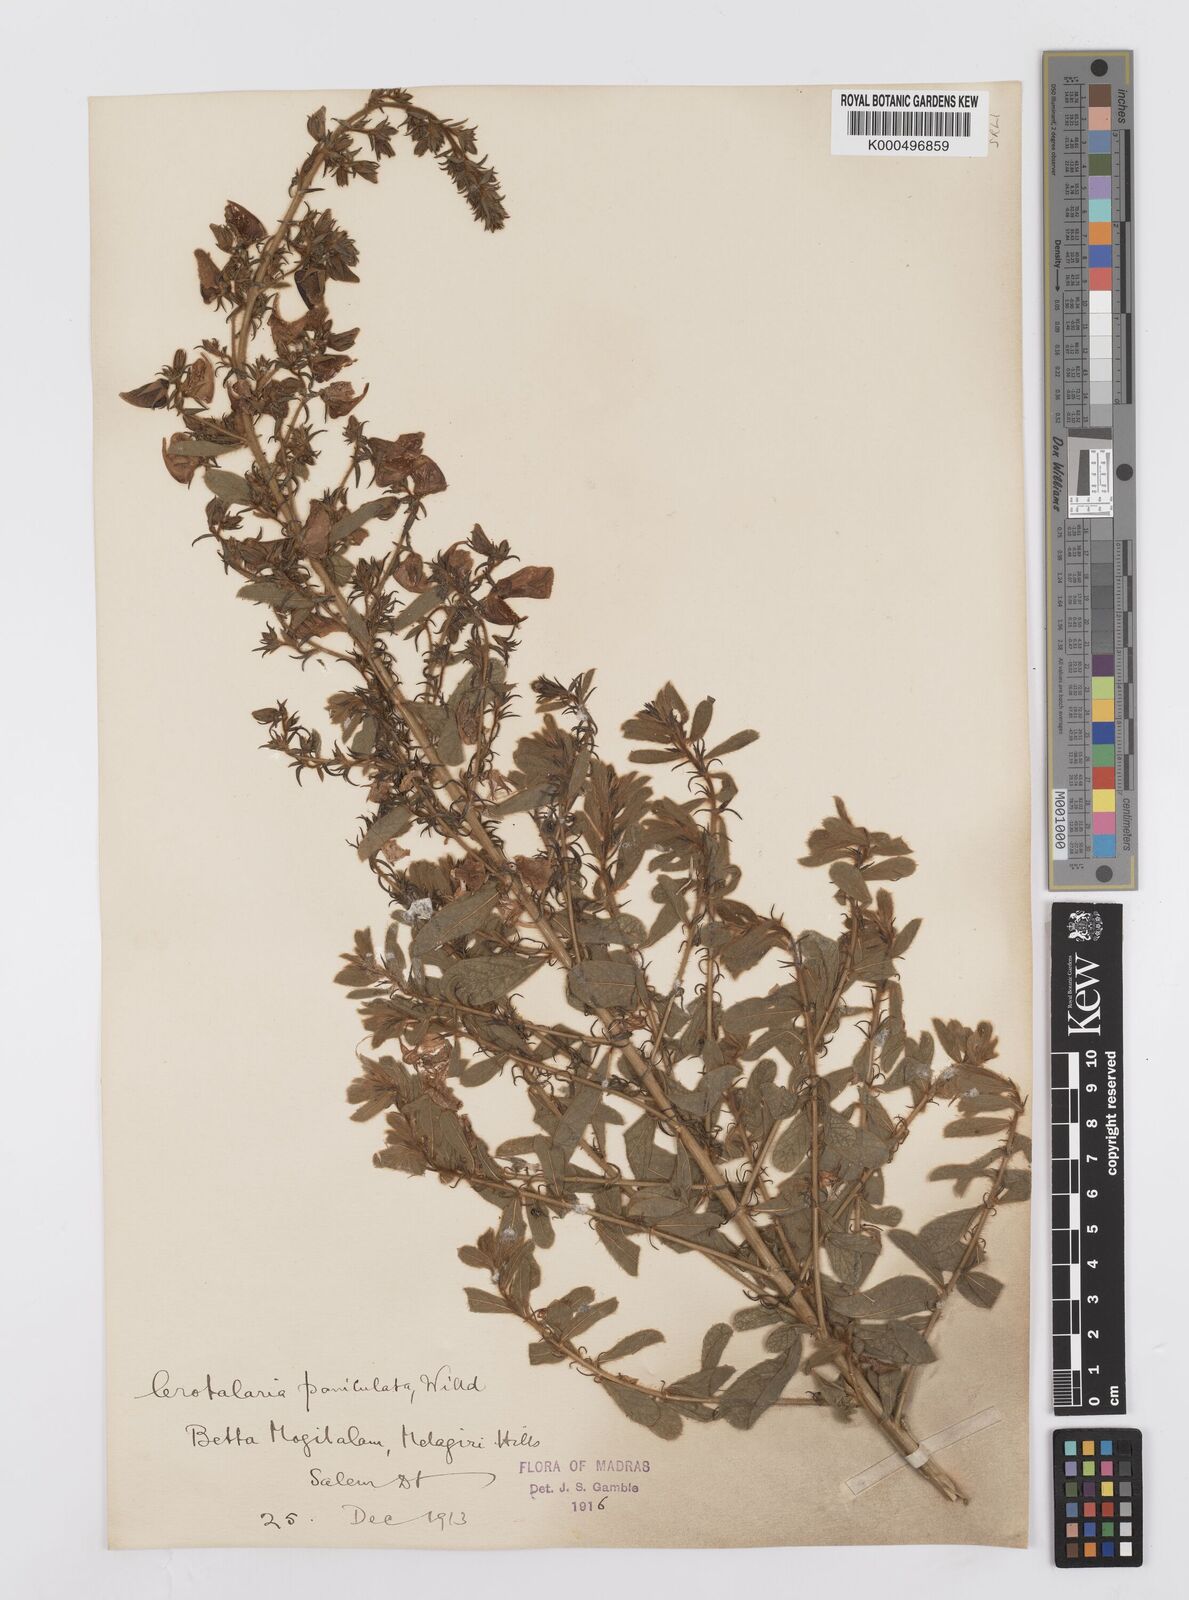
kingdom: Plantae
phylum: Tracheophyta
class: Magnoliopsida
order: Fabales
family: Fabaceae
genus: Crotalaria
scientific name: Crotalaria paniculata
